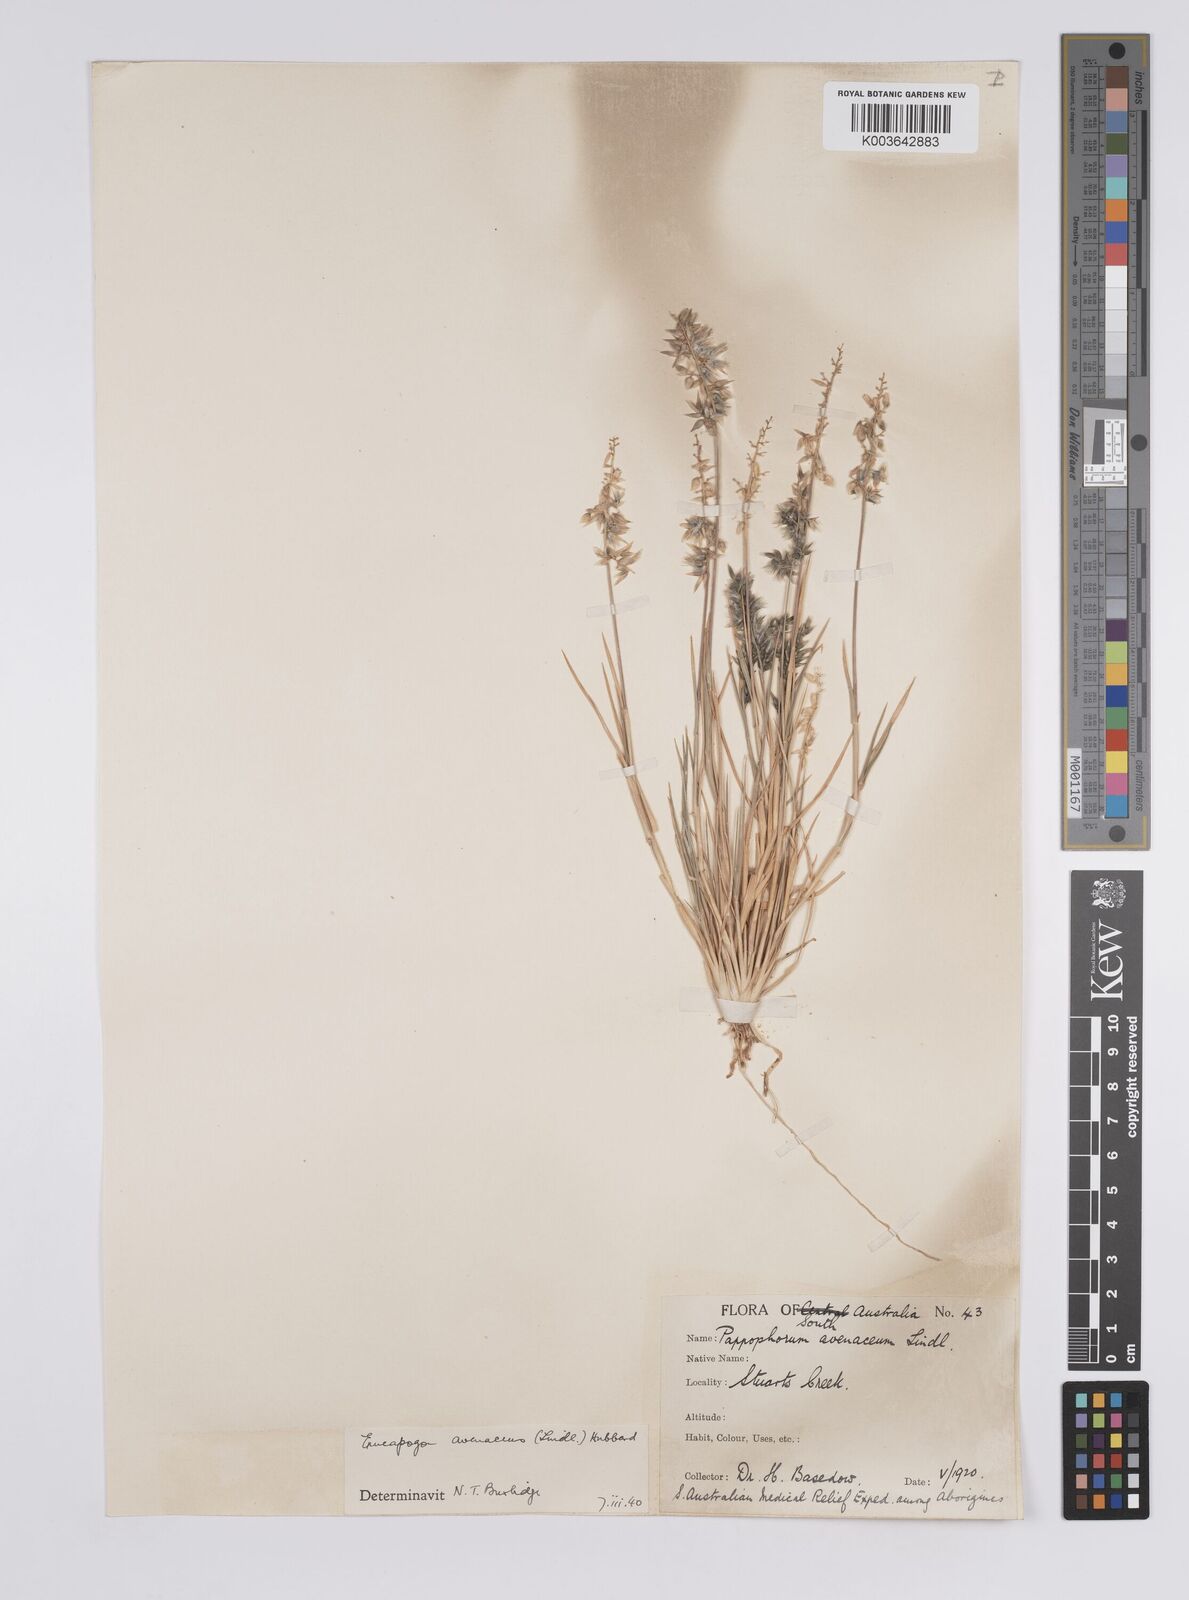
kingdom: Plantae
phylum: Tracheophyta
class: Liliopsida
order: Poales
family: Poaceae
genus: Enneapogon
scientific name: Enneapogon avenaceus
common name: Hairy oat grass
